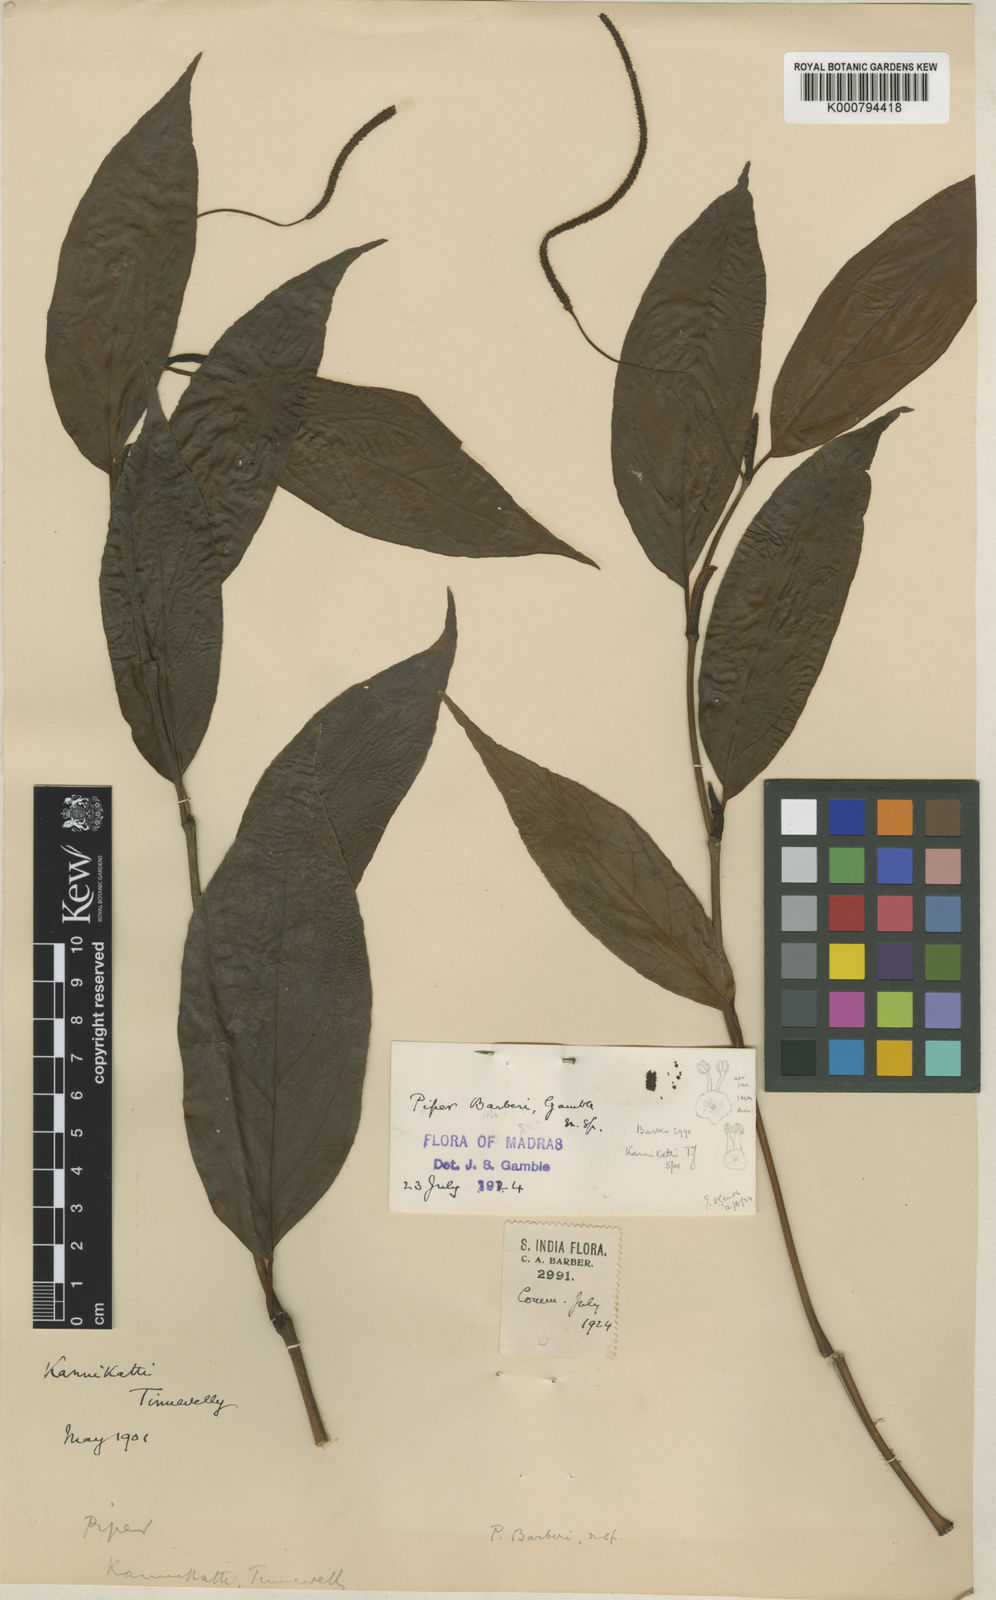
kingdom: Plantae
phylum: Tracheophyta
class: Magnoliopsida
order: Piperales
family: Piperaceae
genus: Piper
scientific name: Piper barberi
